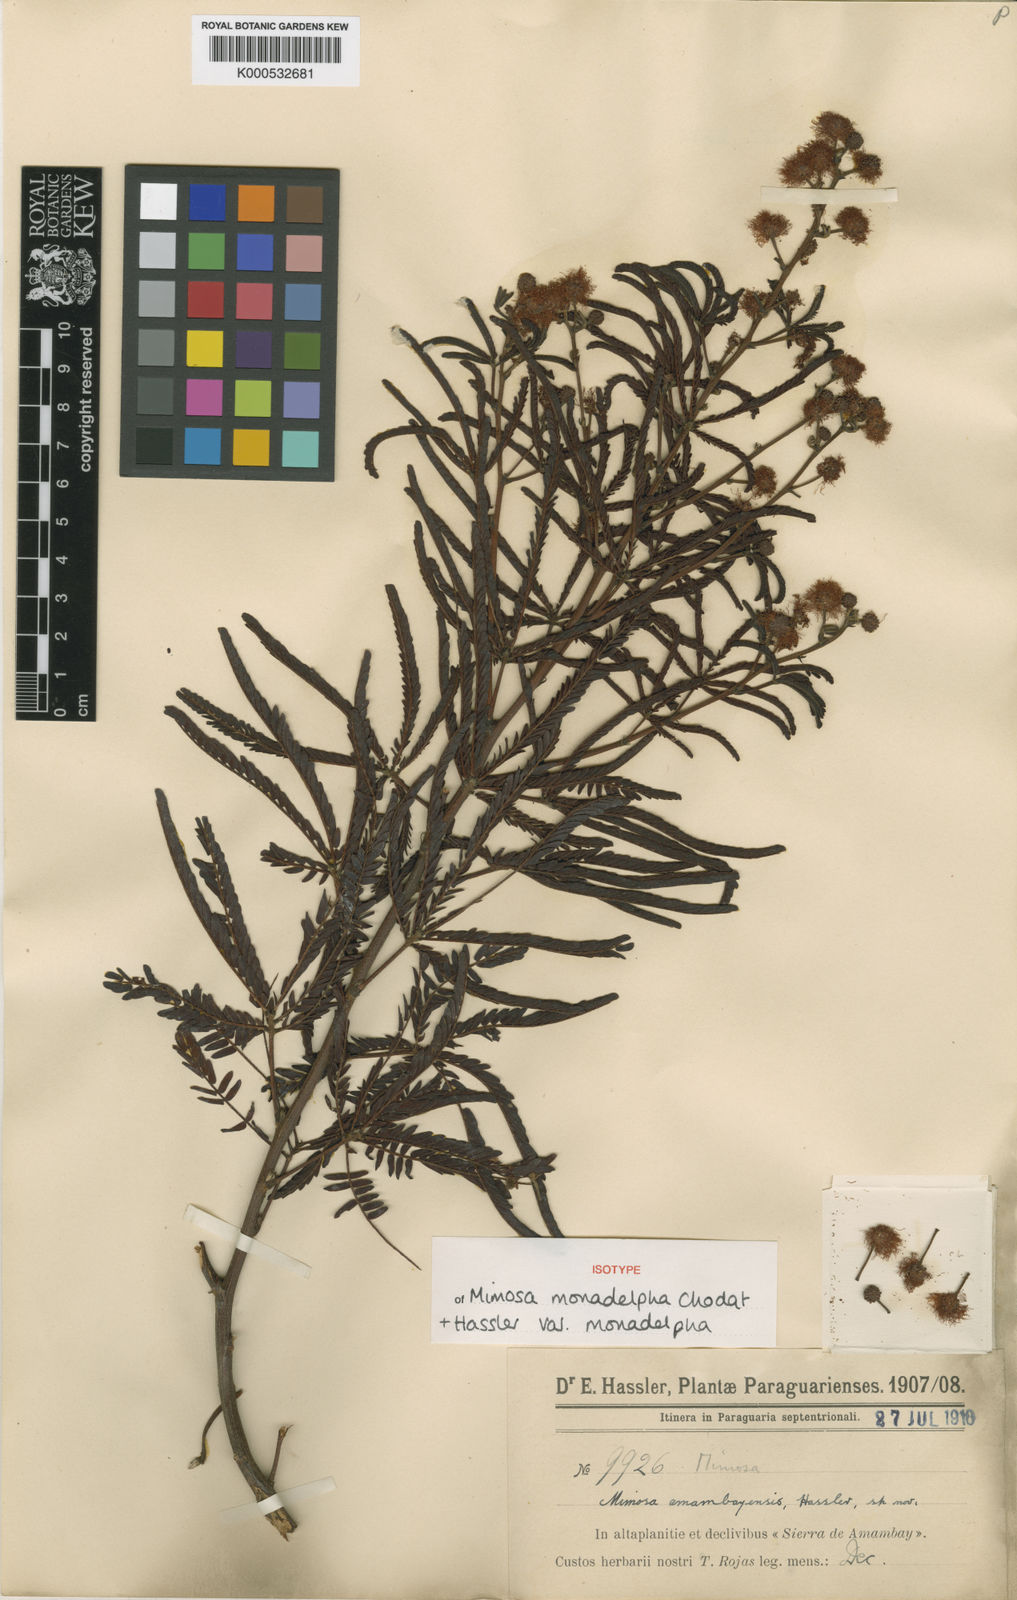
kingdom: Plantae
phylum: Tracheophyta
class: Magnoliopsida
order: Fabales
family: Fabaceae
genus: Mimosa
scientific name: Mimosa amambayensis
